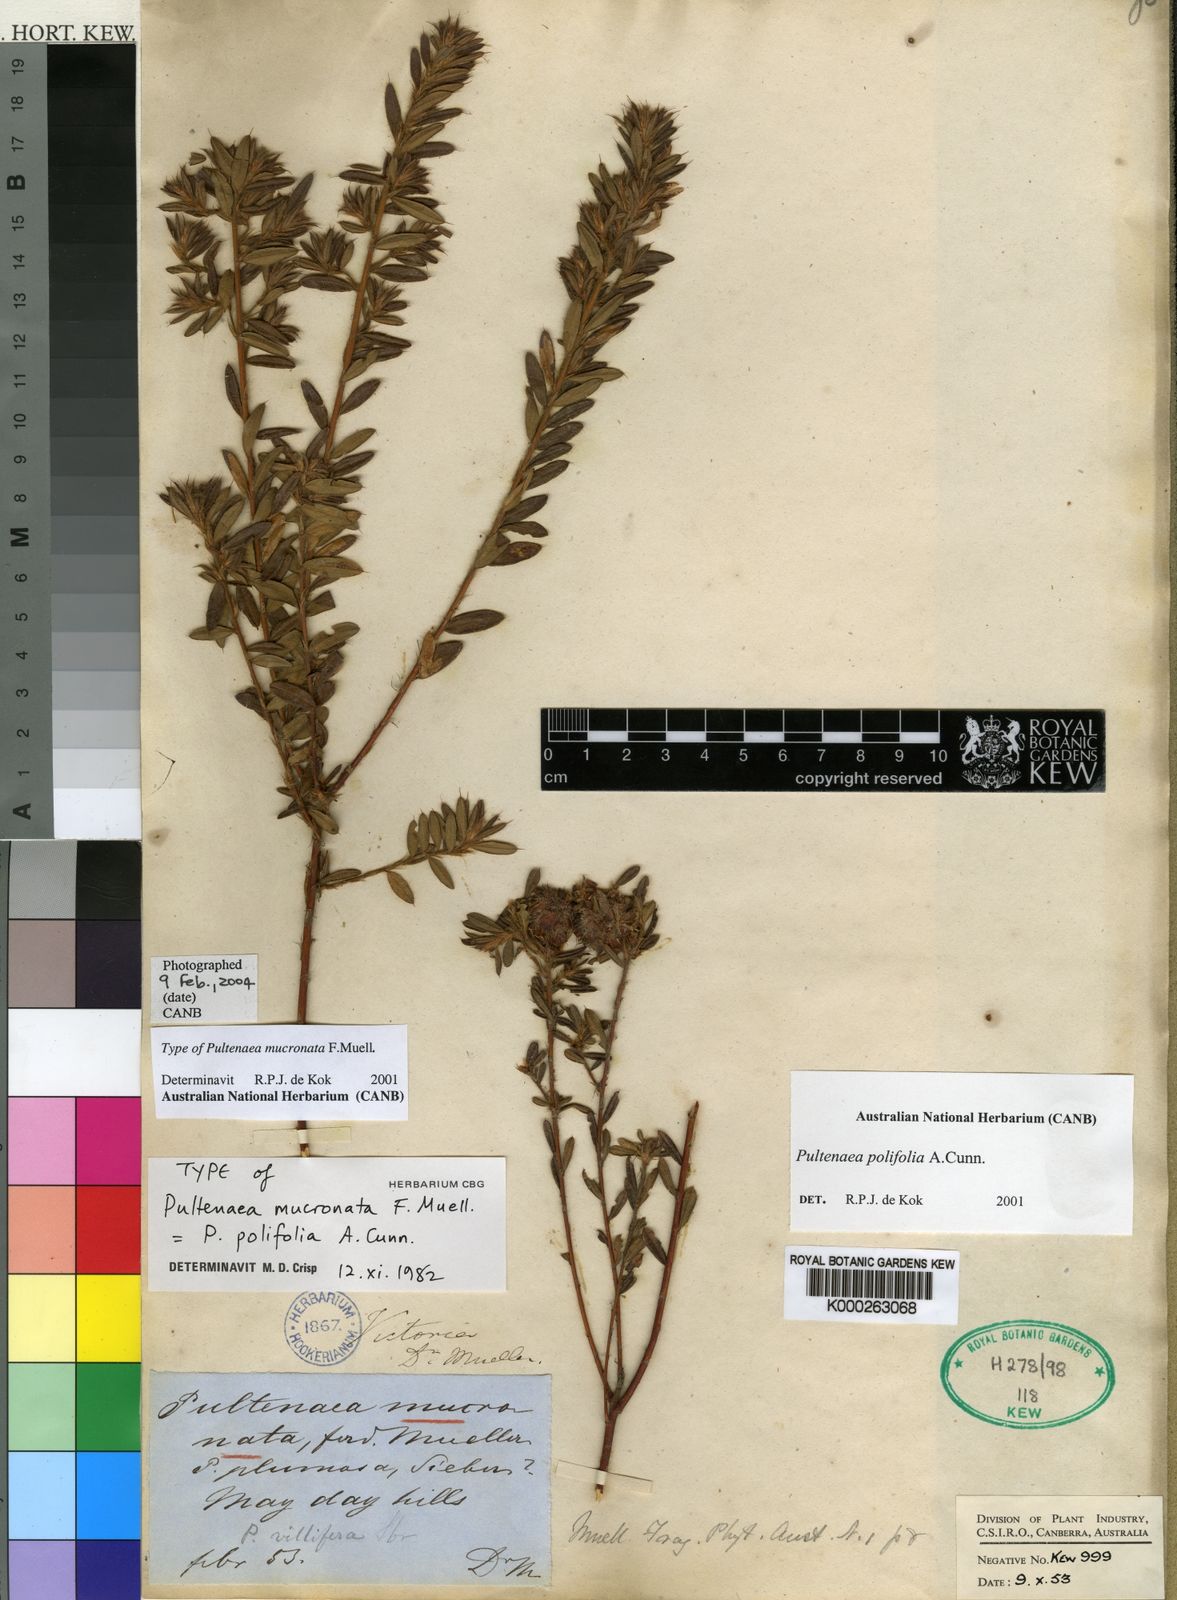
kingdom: Plantae
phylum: Tracheophyta
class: Magnoliopsida
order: Fabales
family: Fabaceae
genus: Pultenaea
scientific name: Pultenaea polifolia
